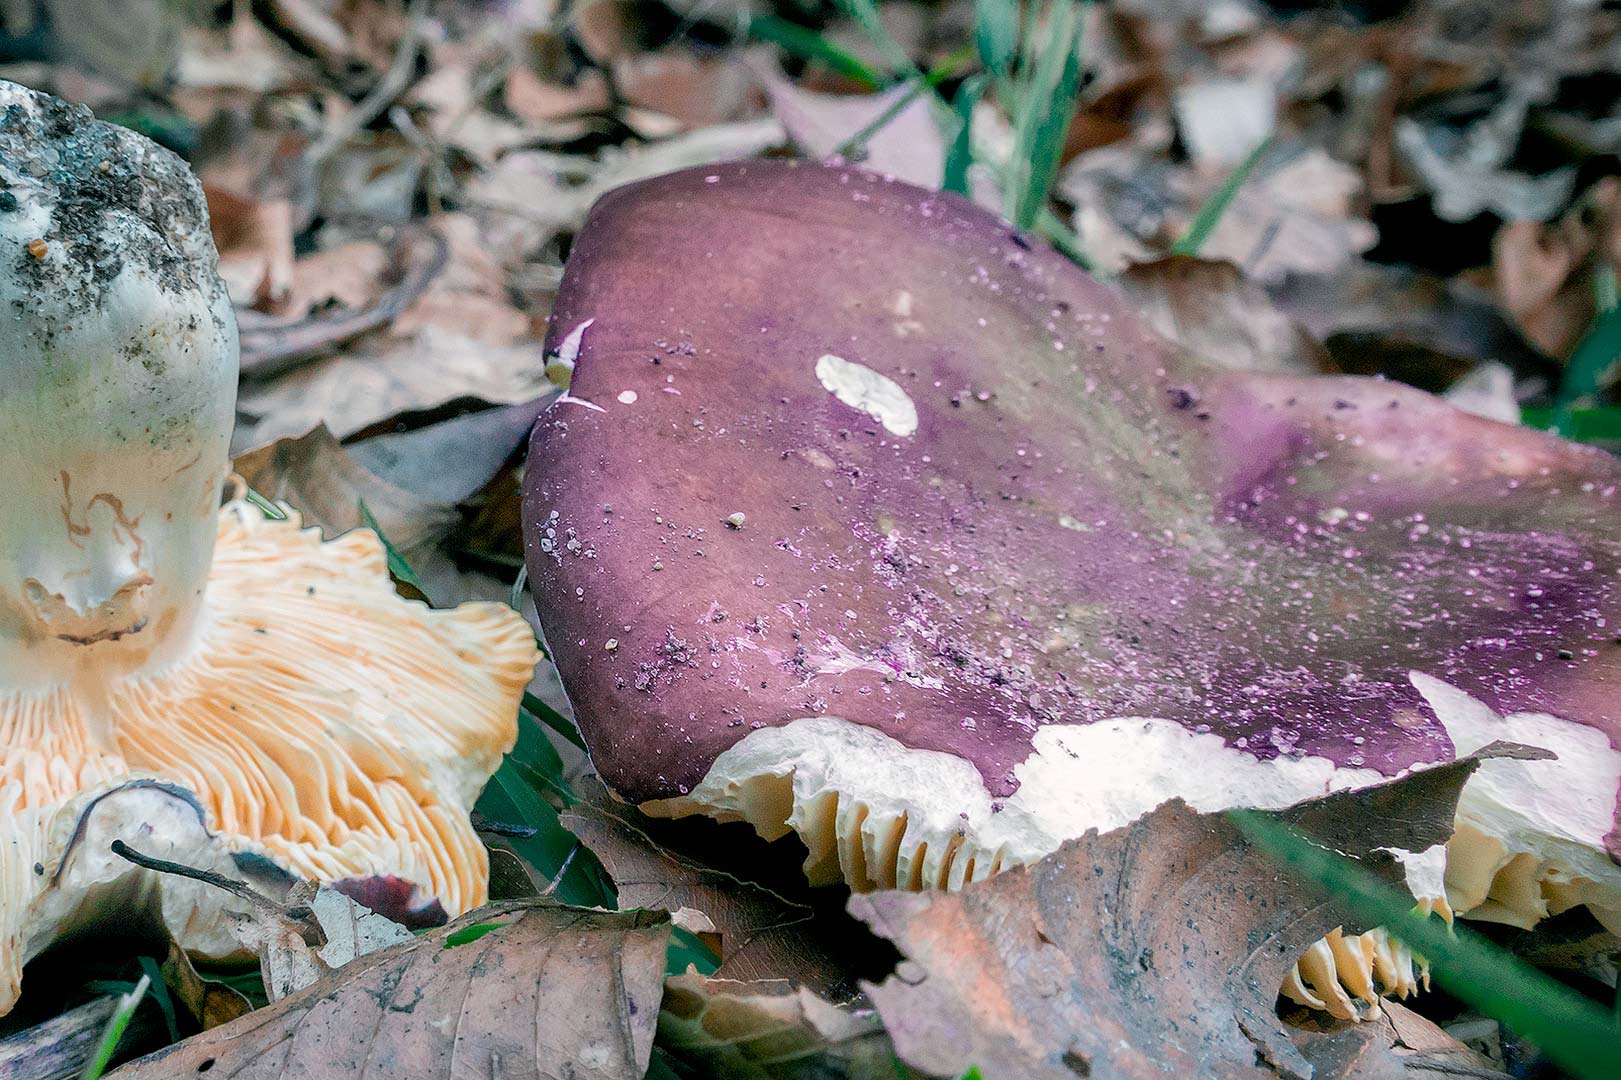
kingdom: Fungi
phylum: Basidiomycota
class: Agaricomycetes
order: Russulales
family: Russulaceae
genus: Russula
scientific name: Russula romellii
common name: romells skørhat
